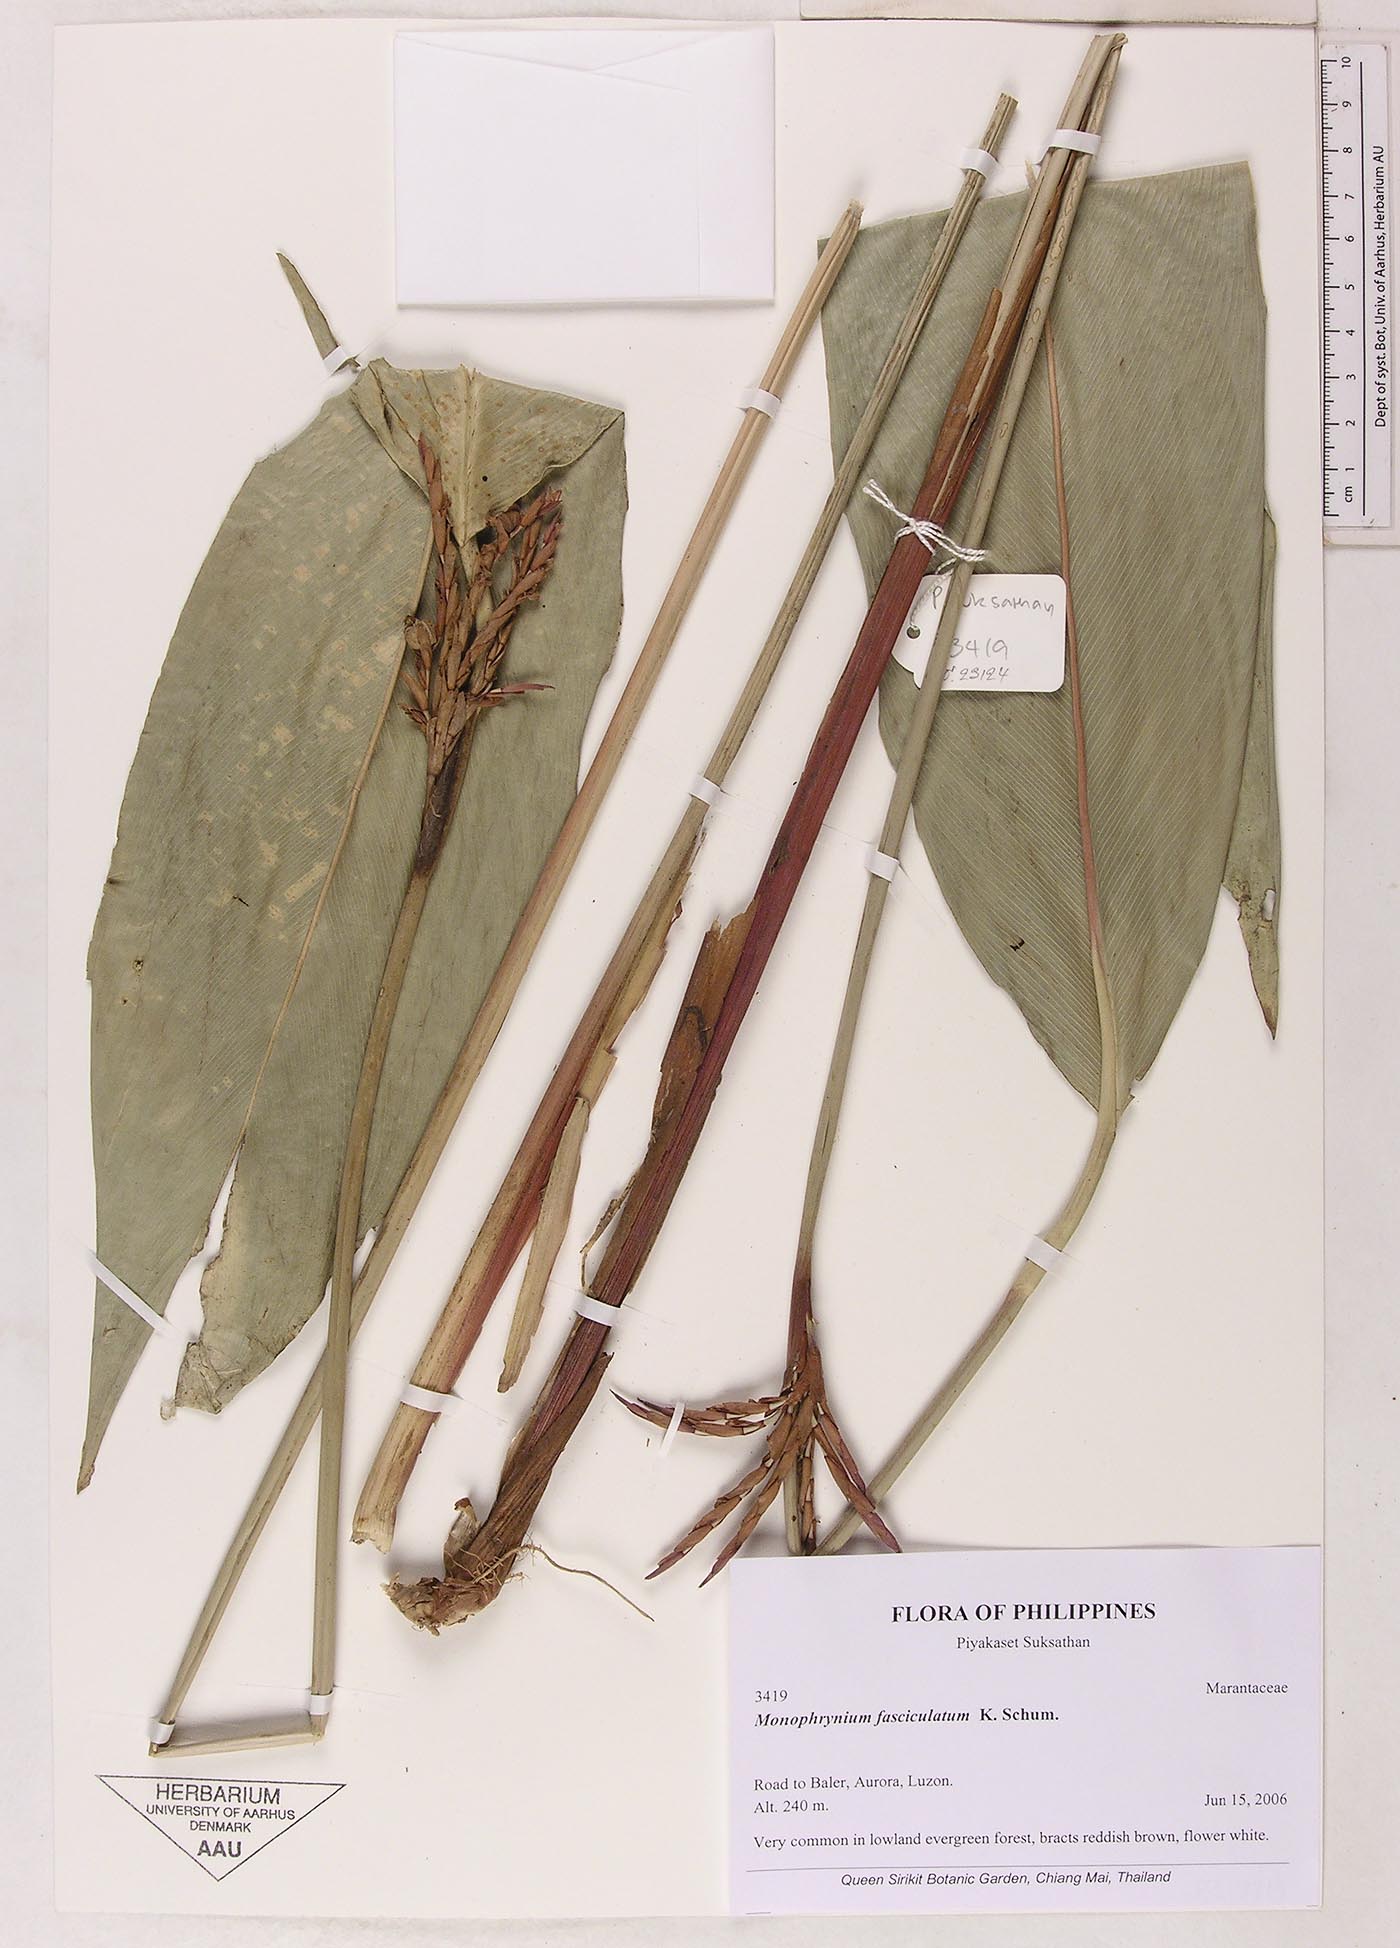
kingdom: Plantae
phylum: Tracheophyta
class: Liliopsida
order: Zingiberales
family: Marantaceae
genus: Phrynium
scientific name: Phrynium fasciculatum
